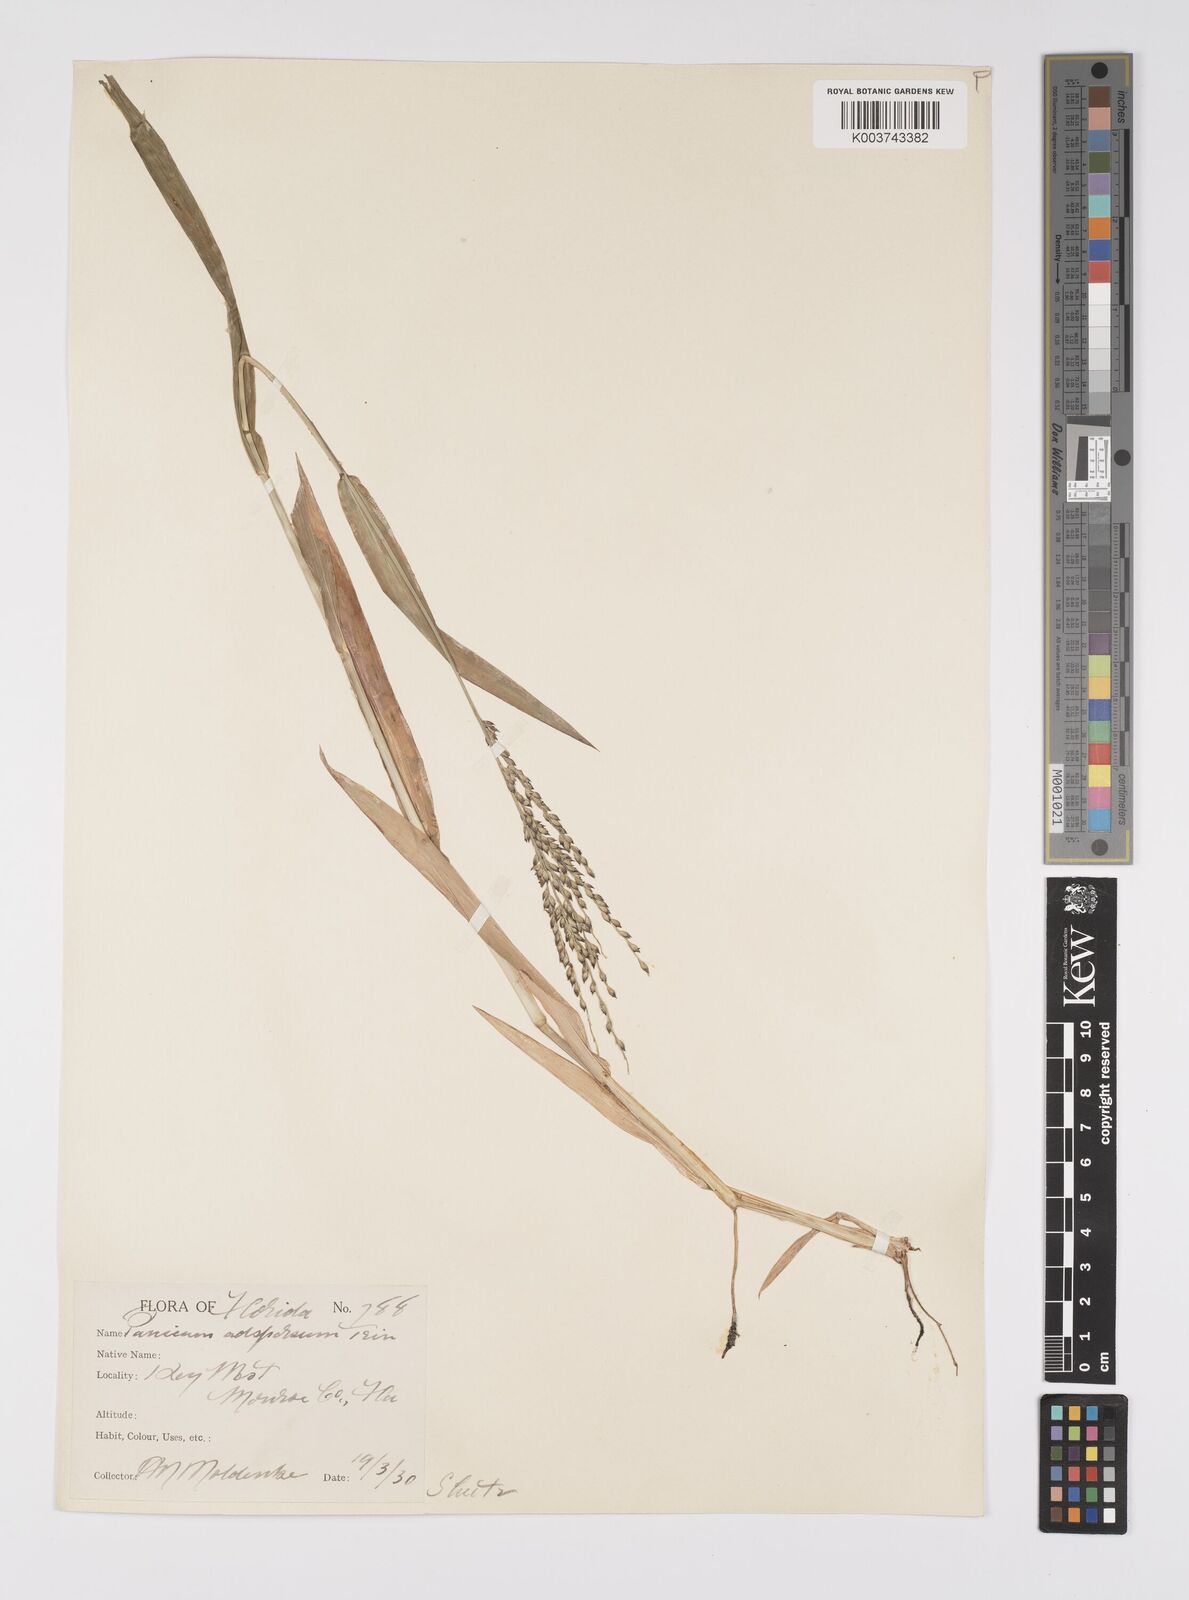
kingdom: Plantae
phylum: Tracheophyta
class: Liliopsida
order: Poales
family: Poaceae
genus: Urochloa
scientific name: Urochloa adspersa
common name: Dominican signal grass
